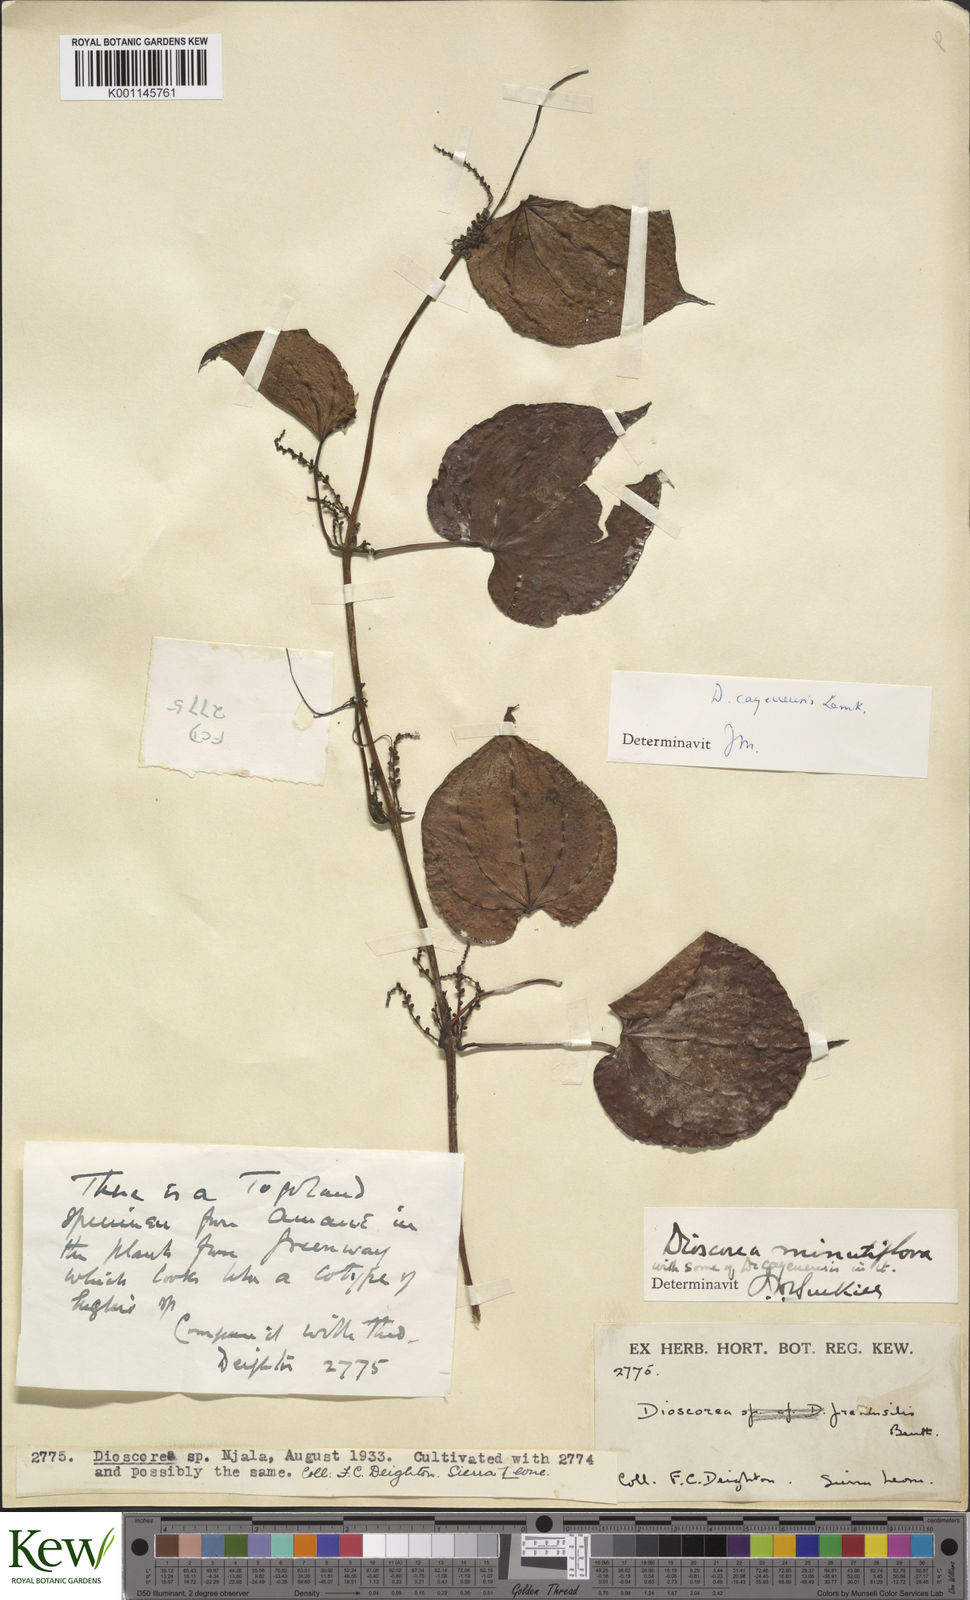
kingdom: Plantae
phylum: Tracheophyta
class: Liliopsida
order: Dioscoreales
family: Dioscoreaceae
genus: Dioscorea
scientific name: Dioscorea cayenensis
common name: Attoto yam
